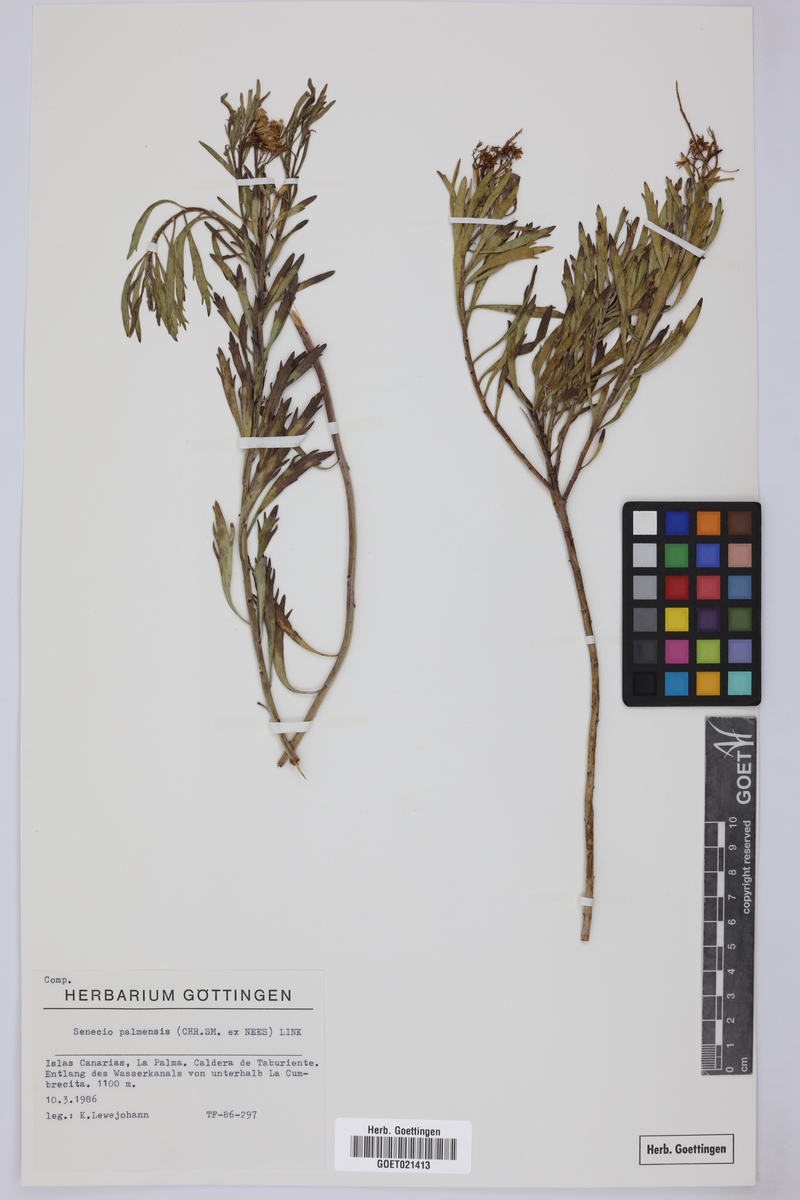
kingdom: Plantae
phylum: Tracheophyta
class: Magnoliopsida
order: Asterales
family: Asteraceae
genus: Bethencourtia
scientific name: Bethencourtia palmensis
